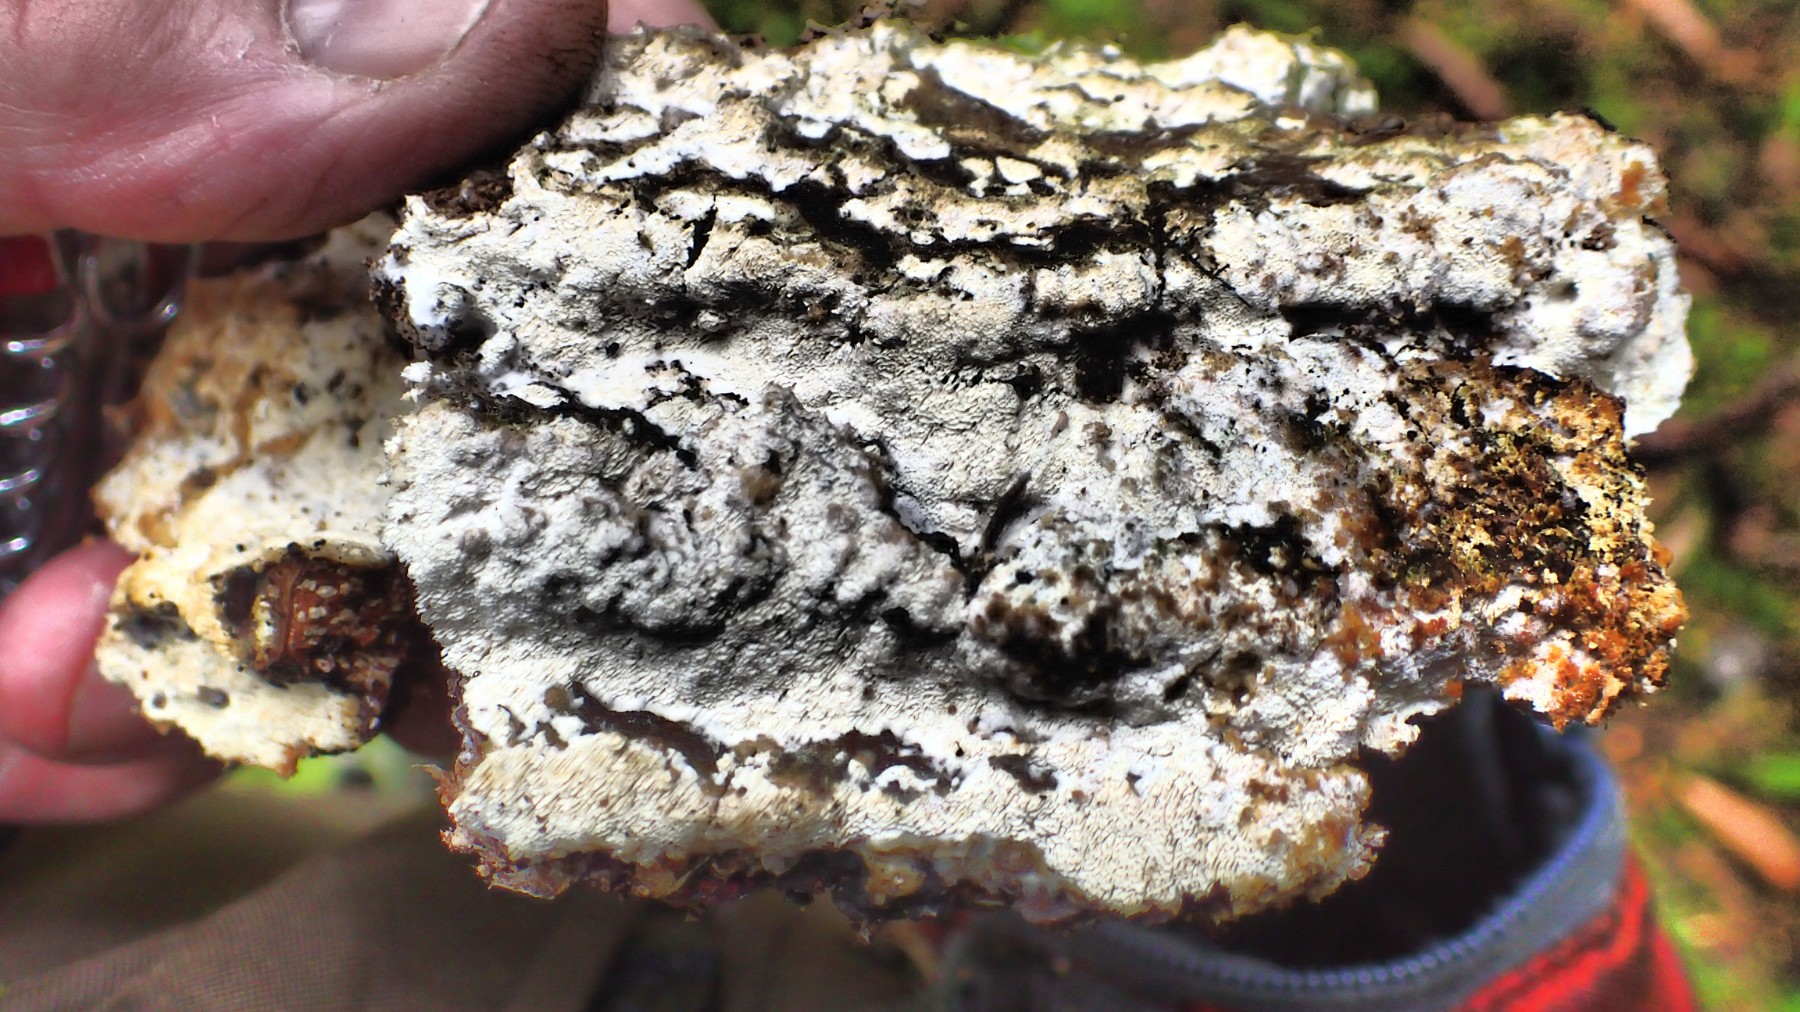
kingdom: Fungi
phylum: Basidiomycota
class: Agaricomycetes
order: Polyporales
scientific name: Polyporales
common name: poresvampordenen
